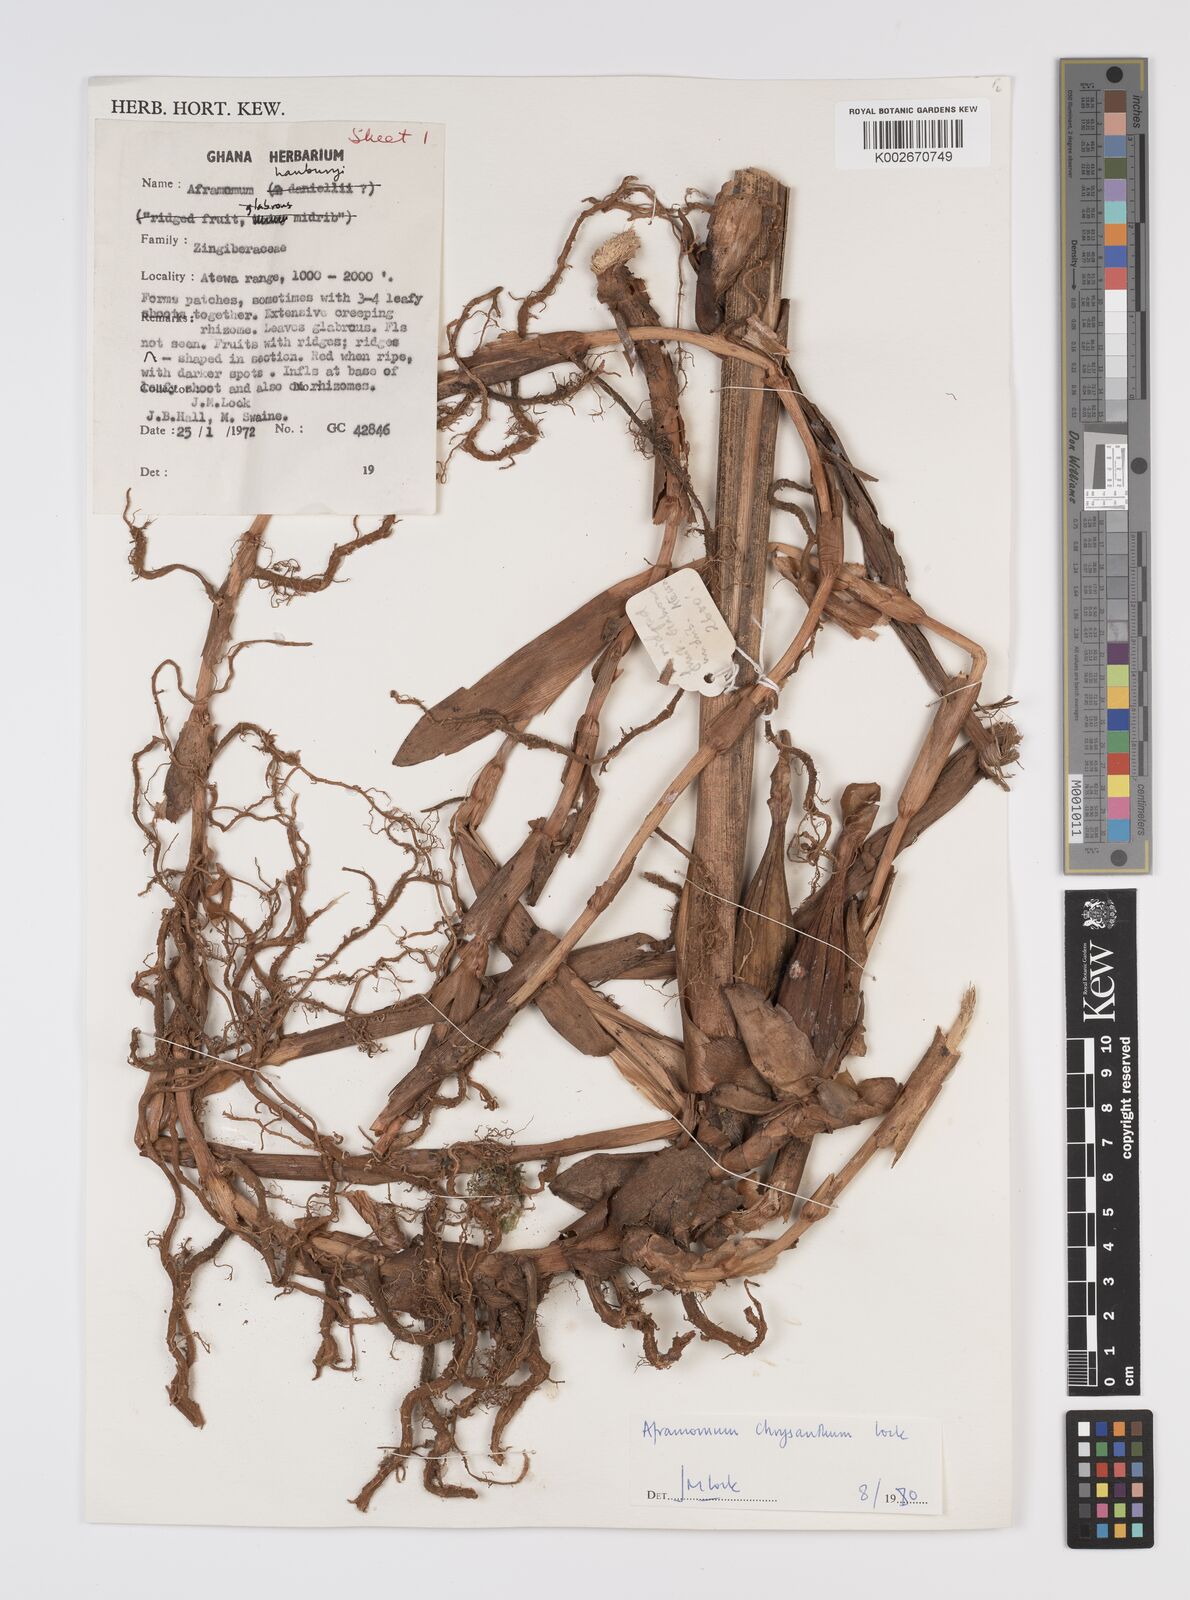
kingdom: Plantae
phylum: Tracheophyta
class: Liliopsida
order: Zingiberales
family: Zingiberaceae
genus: Aframomum
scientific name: Aframomum chrysanthum
